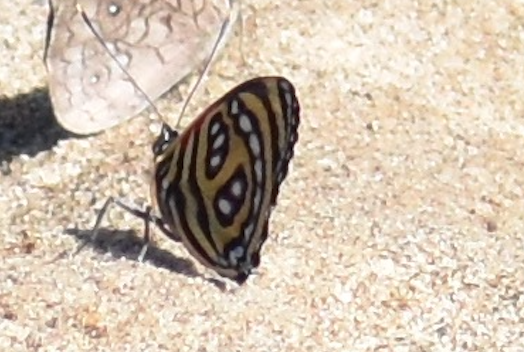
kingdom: Animalia
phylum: Arthropoda
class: Insecta
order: Lepidoptera
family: Nymphalidae
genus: Catagramma
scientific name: Catagramma pygas
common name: Godart's numberwing
